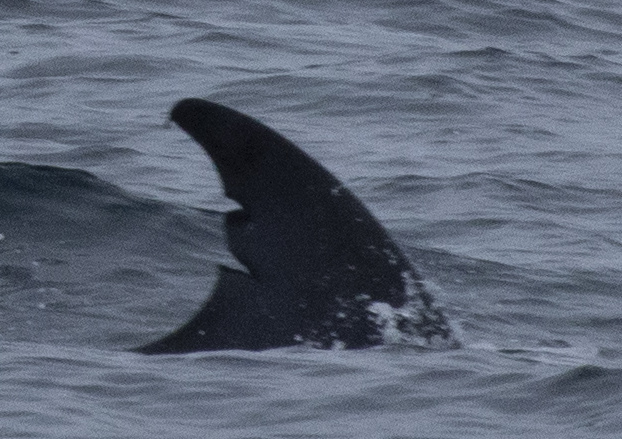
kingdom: Animalia
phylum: Chordata
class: Mammalia
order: Cetacea
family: Balaenopteridae
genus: Balaenoptera
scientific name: Balaenoptera edeni
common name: Bryde's whale
